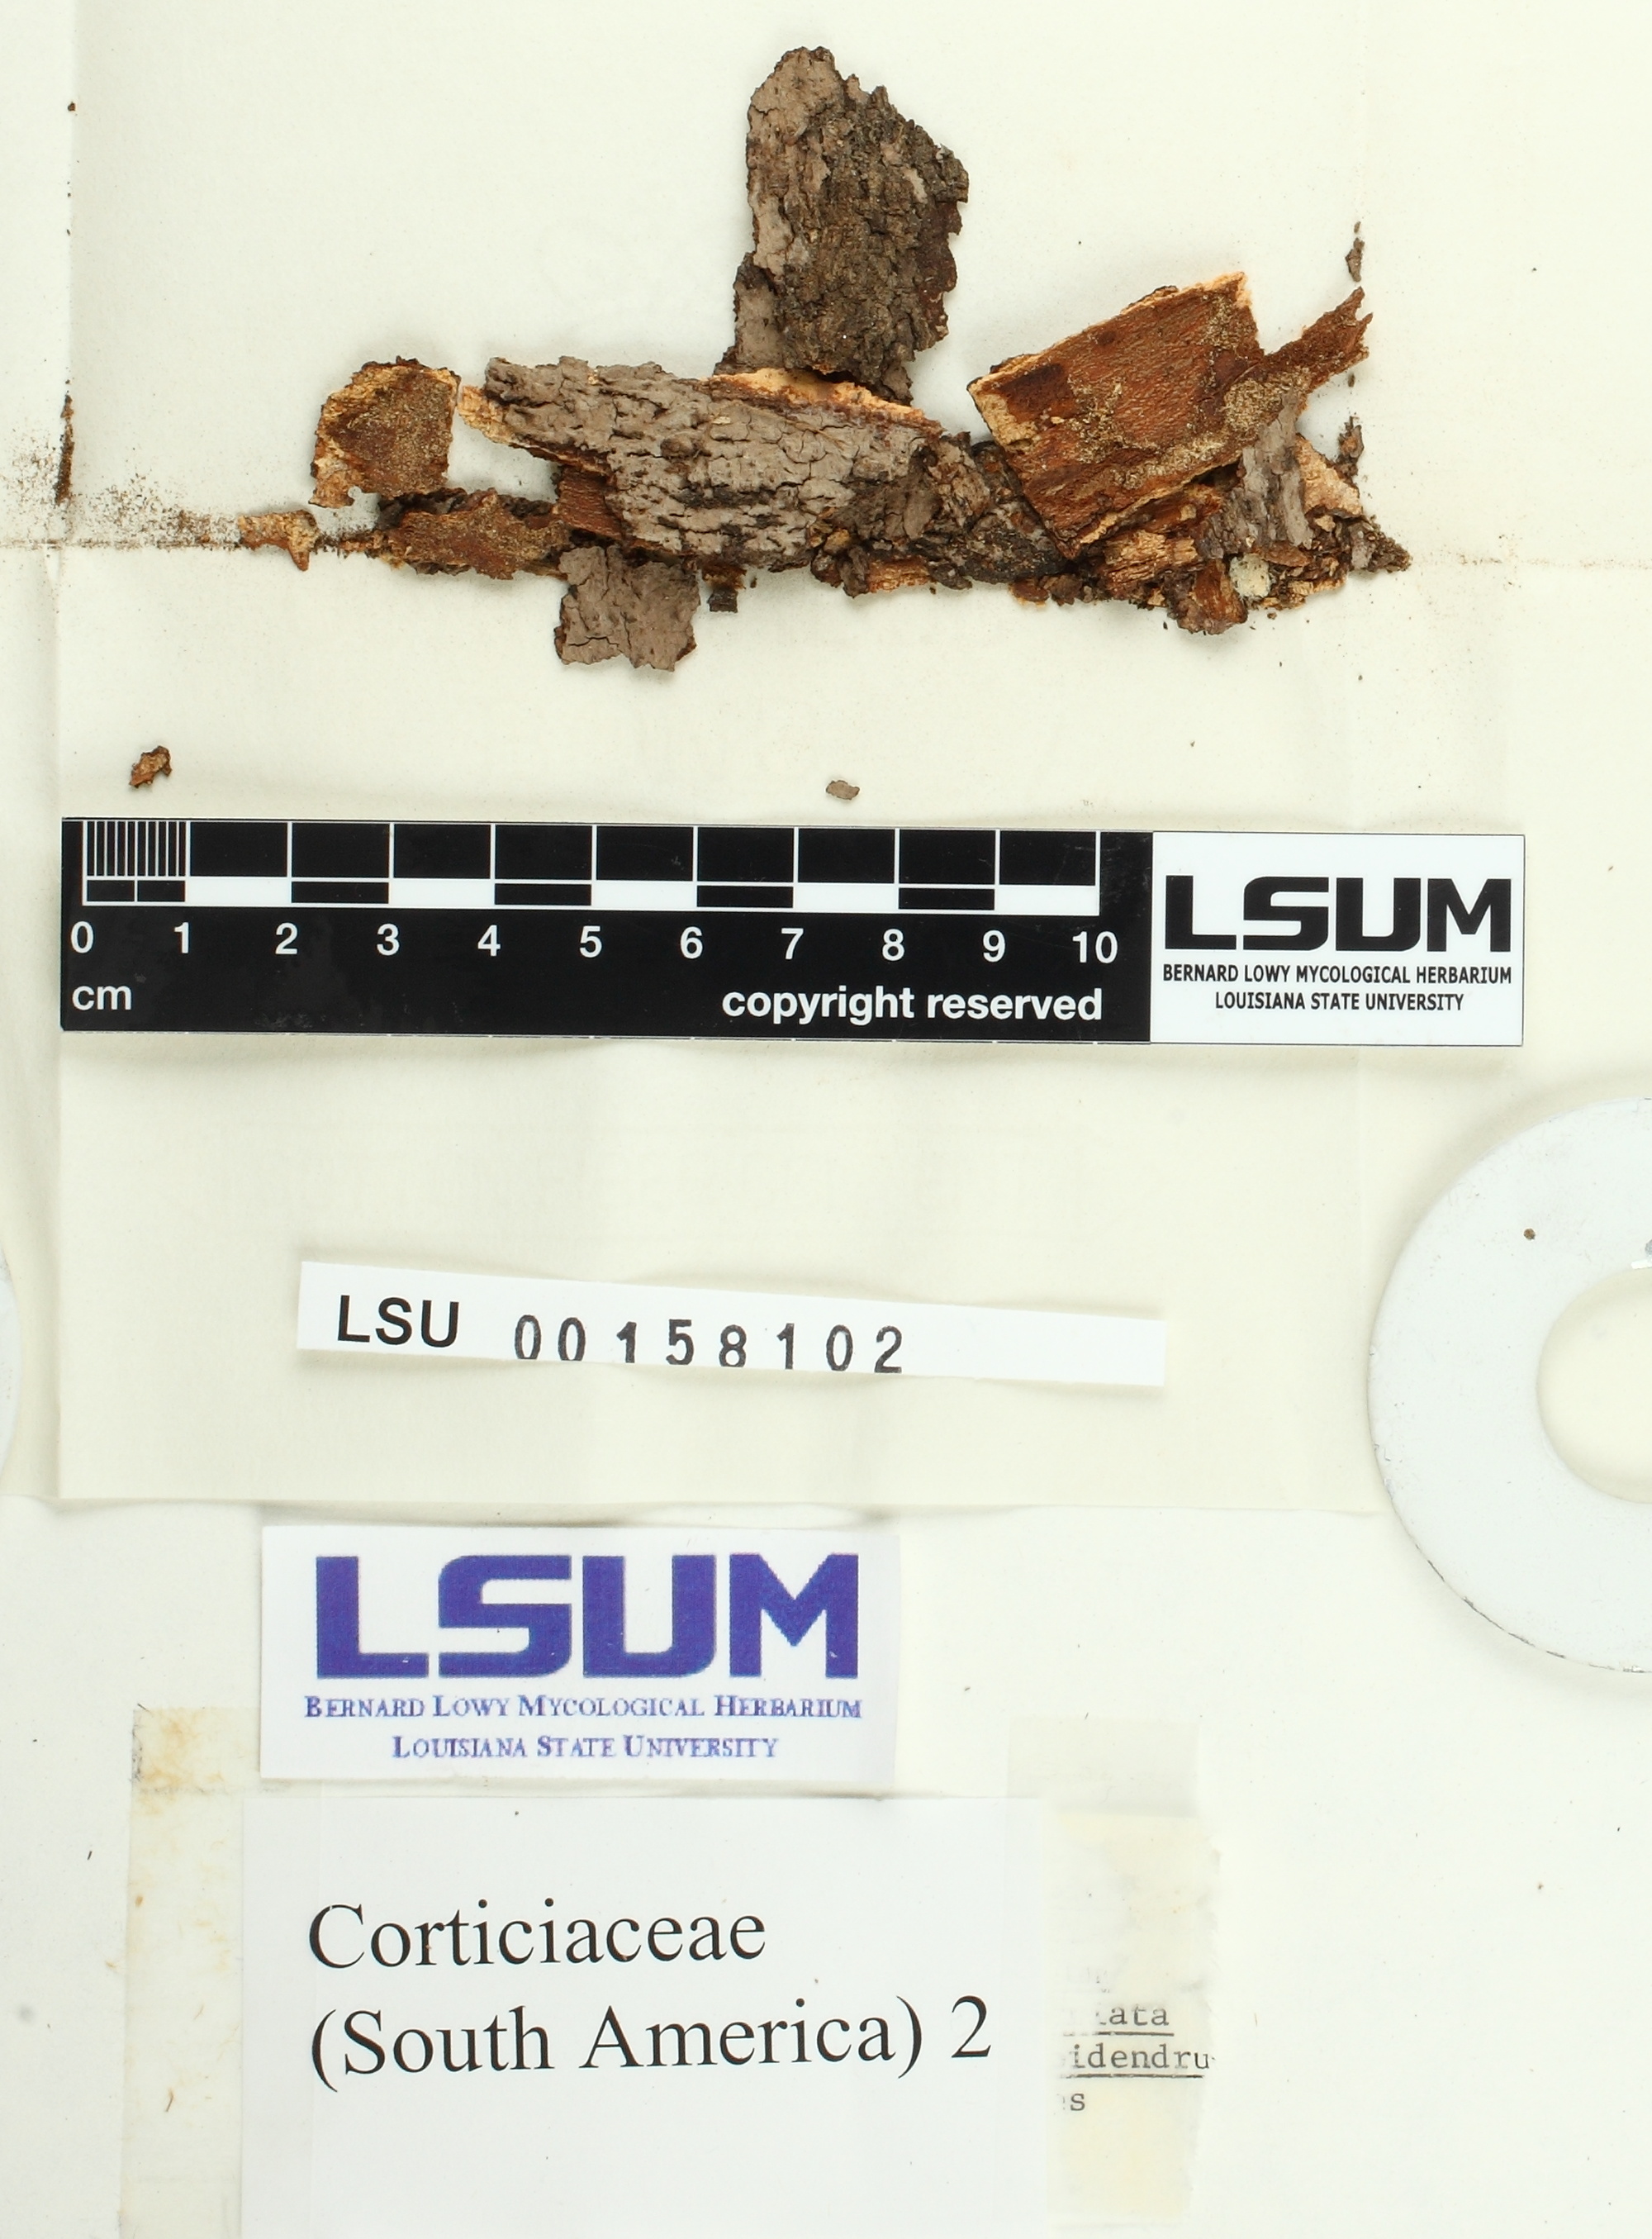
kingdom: Fungi
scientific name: Fungi
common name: Fungi
